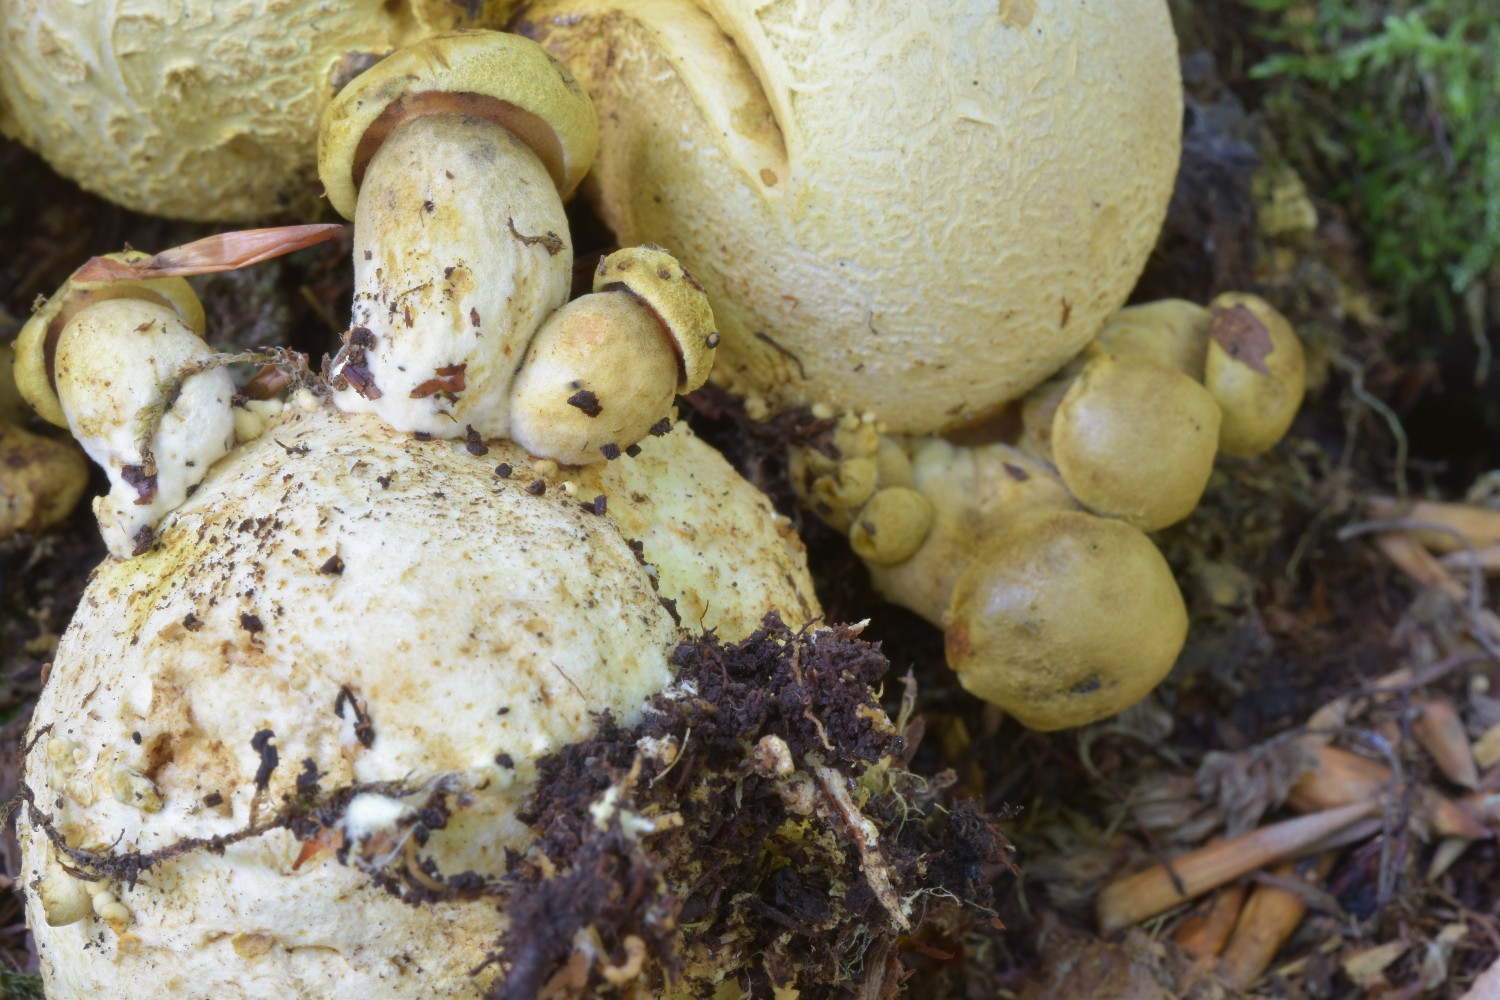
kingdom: Fungi
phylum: Basidiomycota
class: Agaricomycetes
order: Boletales
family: Boletaceae
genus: Pseudoboletus
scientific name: Pseudoboletus parasiticus
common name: snyltende rørhat
